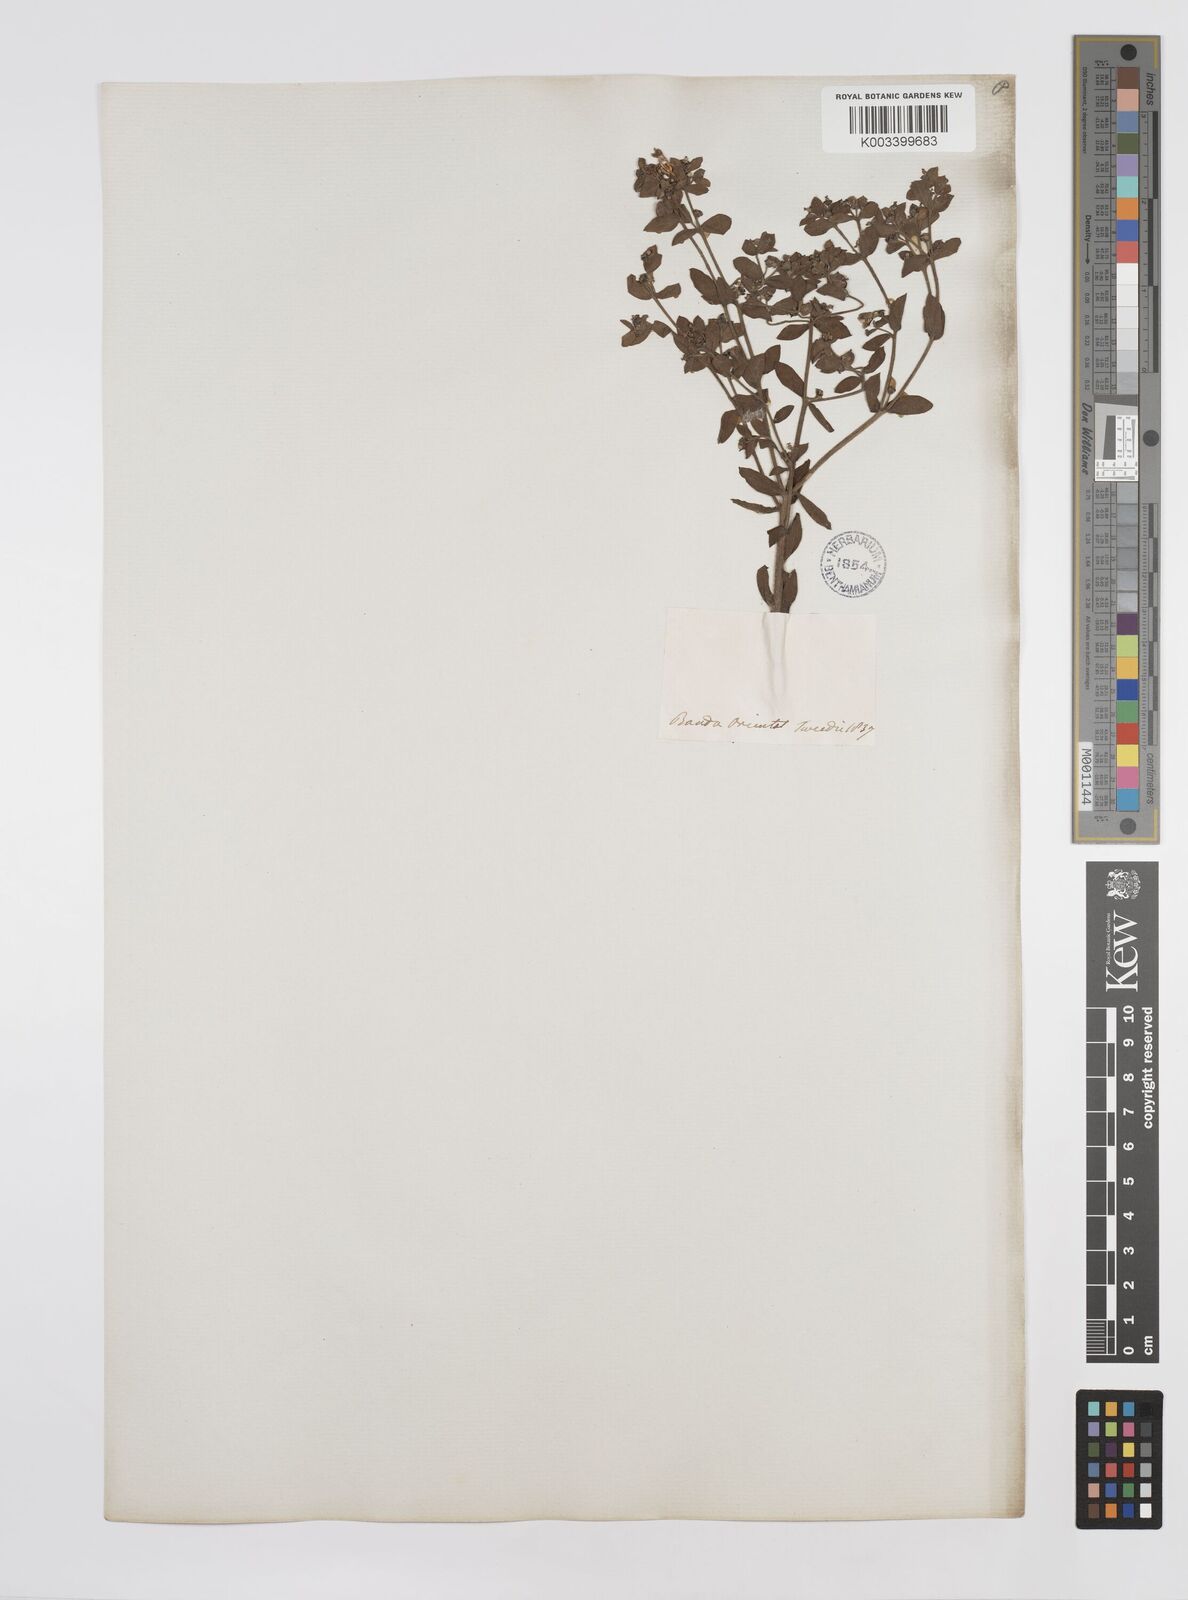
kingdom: Plantae
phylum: Tracheophyta
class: Magnoliopsida
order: Malpighiales
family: Euphorbiaceae
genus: Euphorbia
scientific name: Euphorbia
